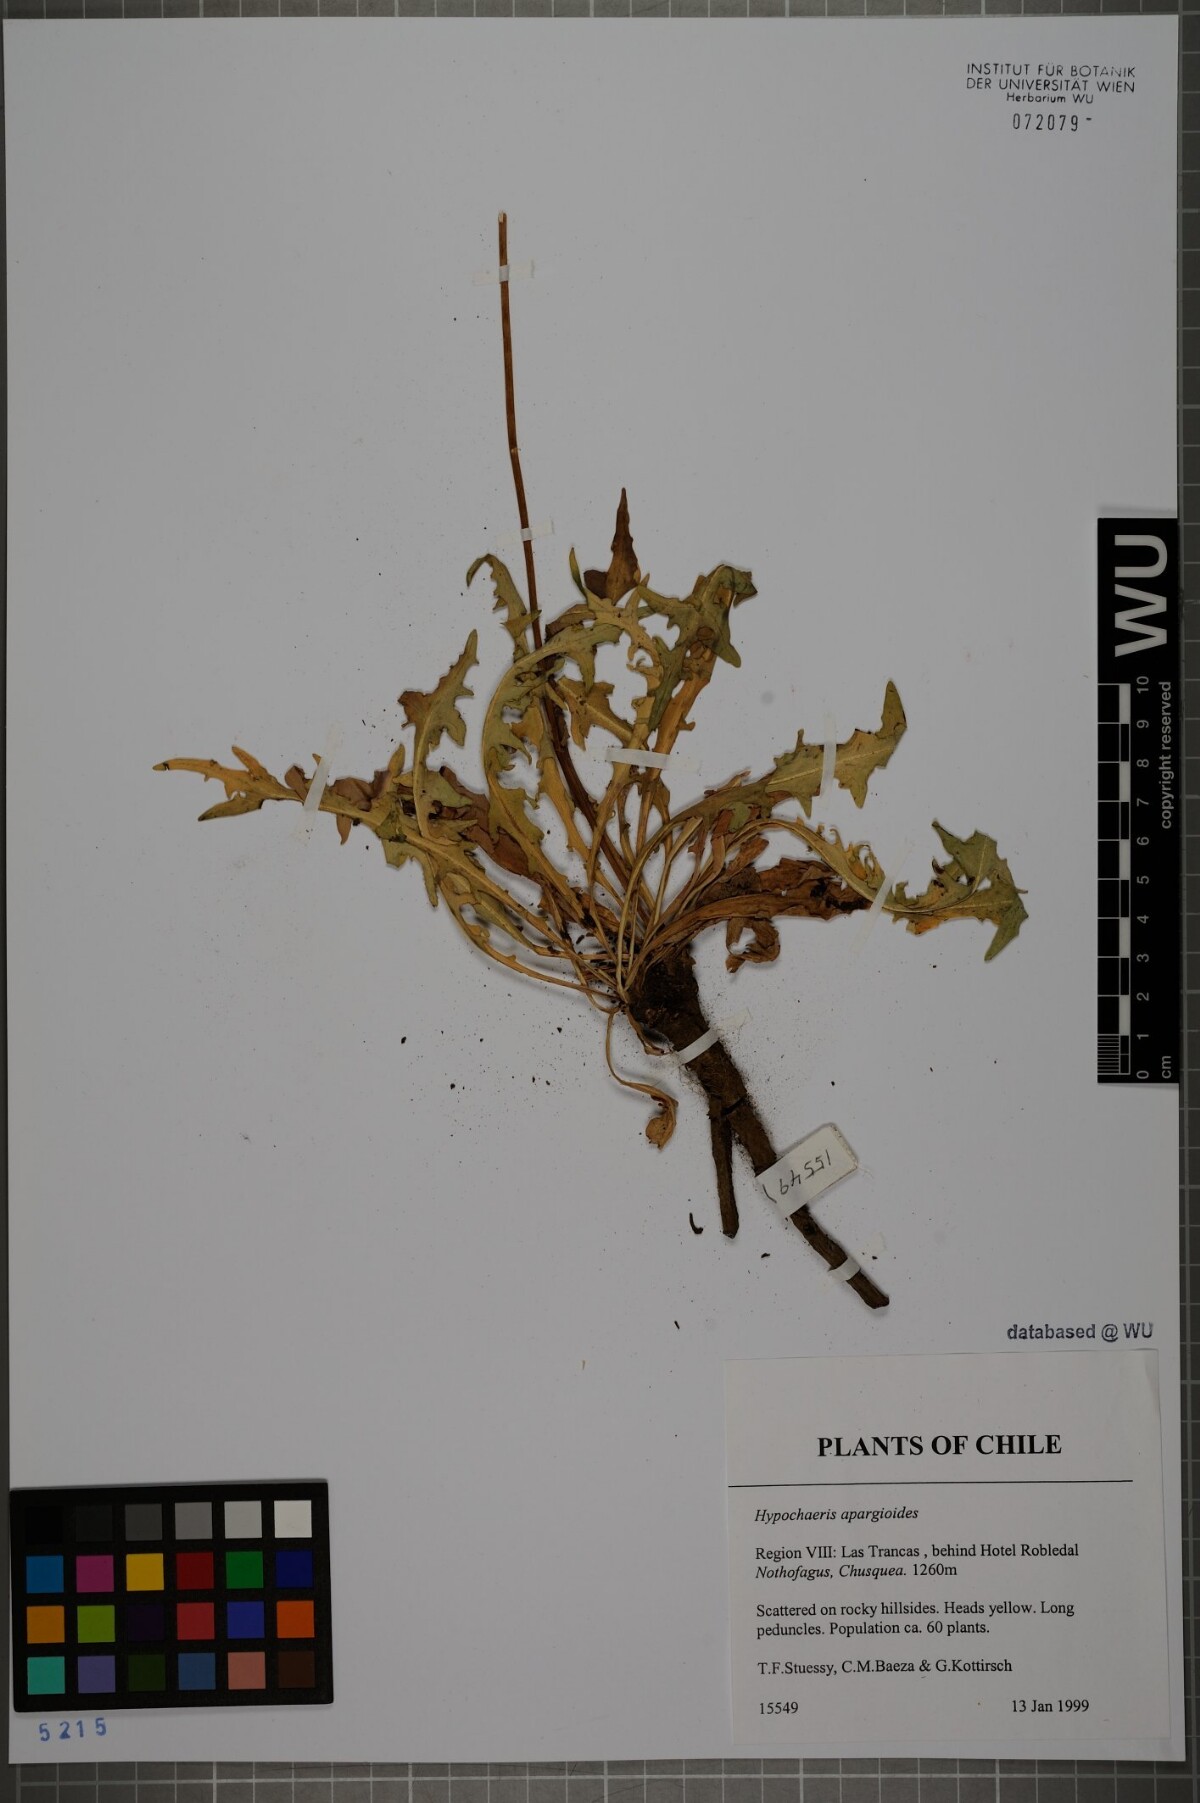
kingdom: Plantae
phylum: Tracheophyta
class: Magnoliopsida
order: Asterales
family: Asteraceae
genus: Hypochaeris
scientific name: Hypochaeris apargioides
